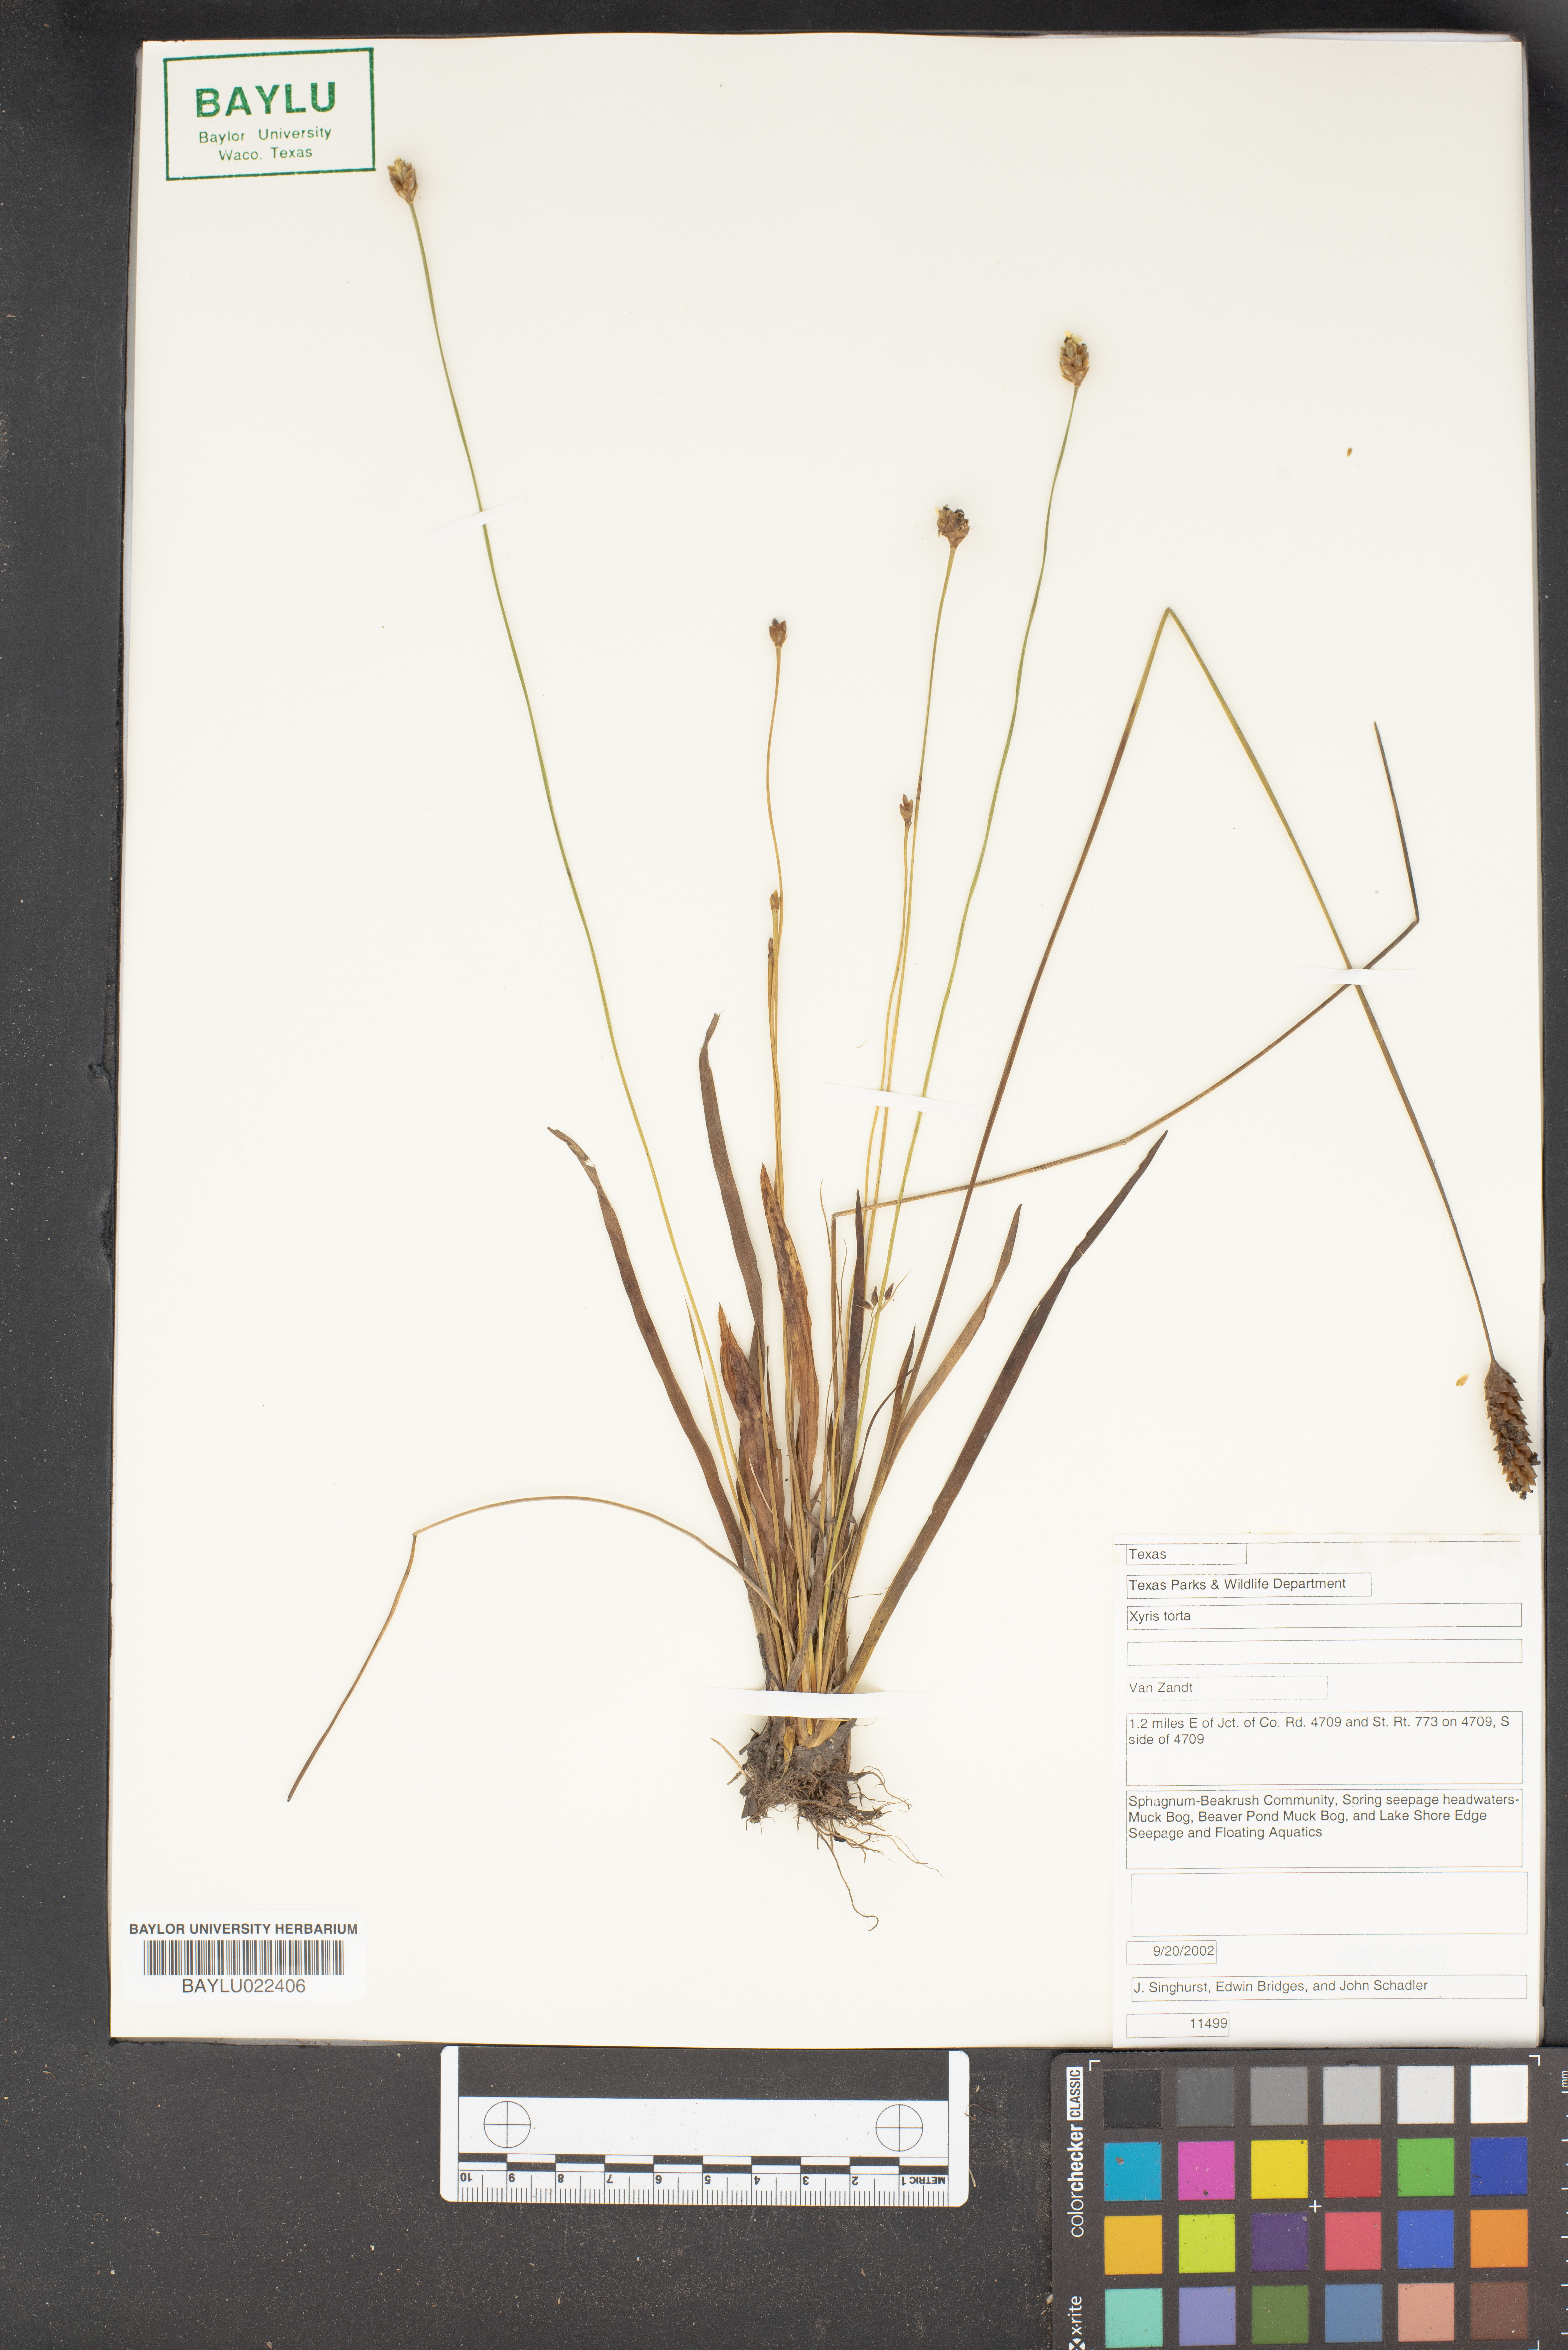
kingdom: Plantae
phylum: Tracheophyta
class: Liliopsida
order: Poales
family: Xyridaceae
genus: Xyris
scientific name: Xyris torta
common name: Common yelloweyed grass
